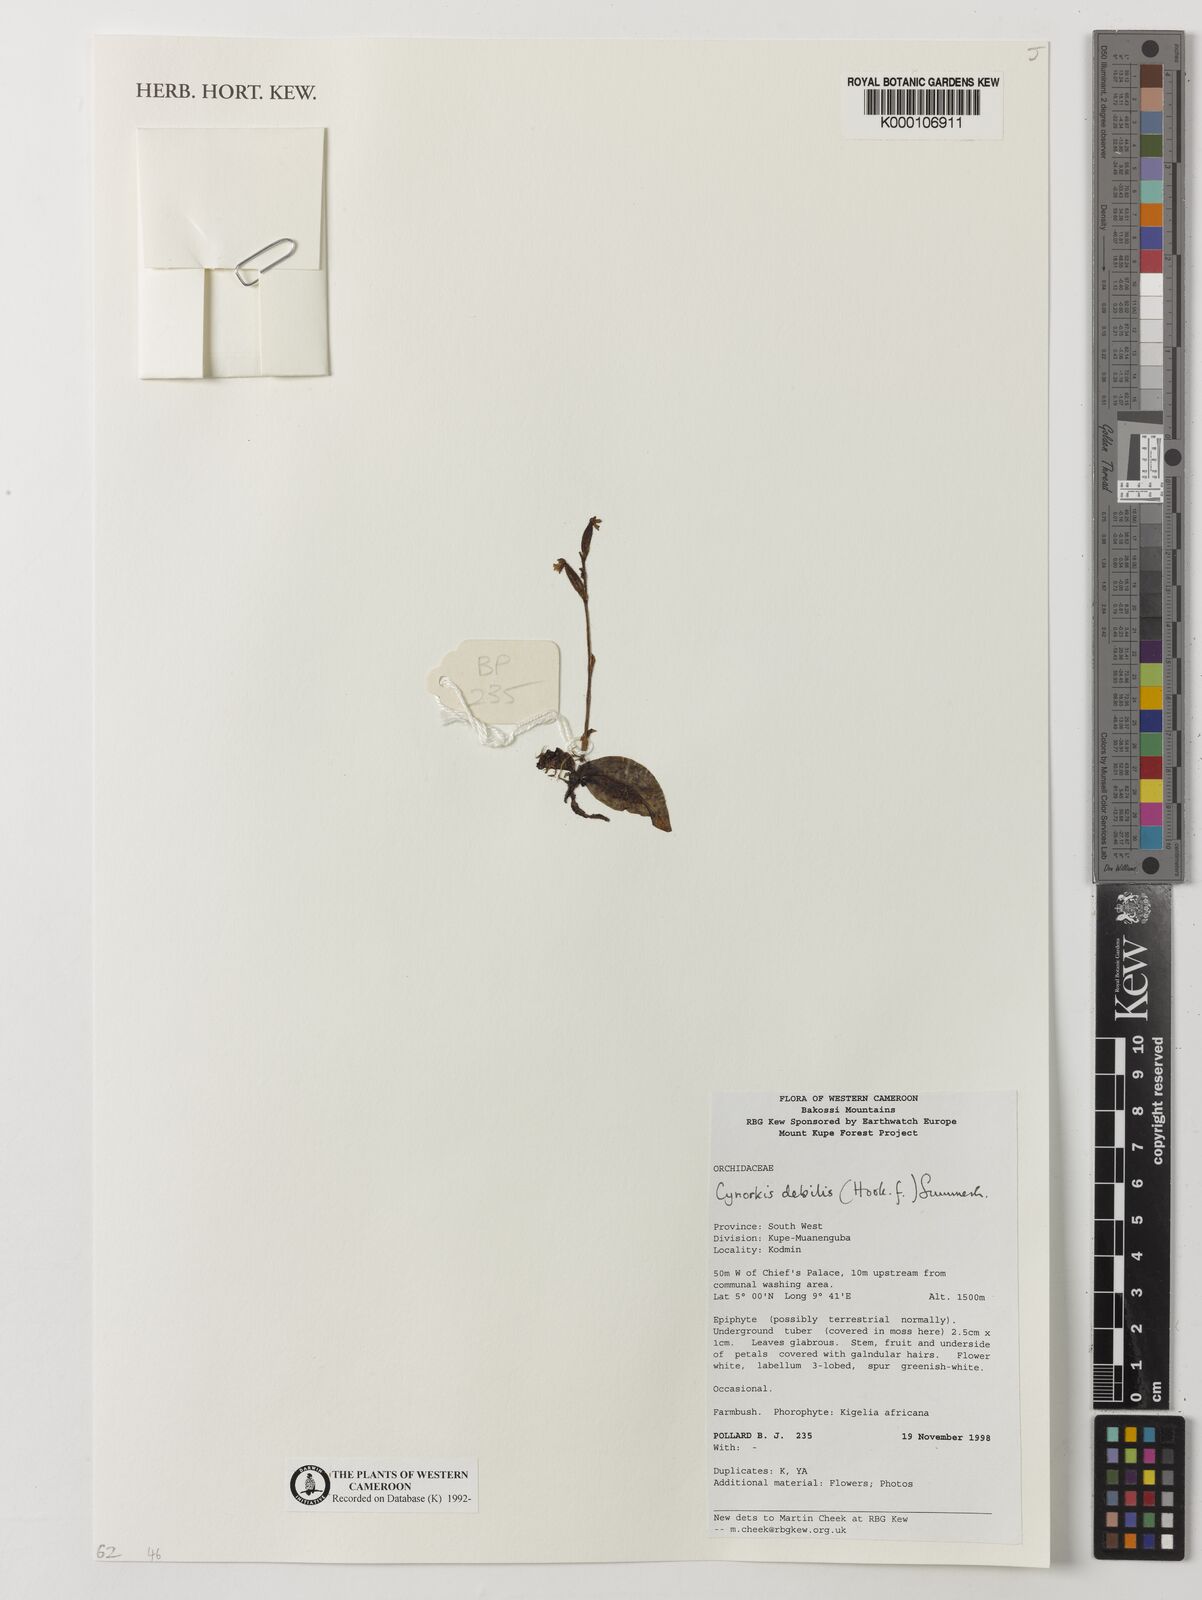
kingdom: Plantae
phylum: Tracheophyta
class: Liliopsida
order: Asparagales
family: Orchidaceae
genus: Cynorkis
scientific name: Cynorkis debilis
